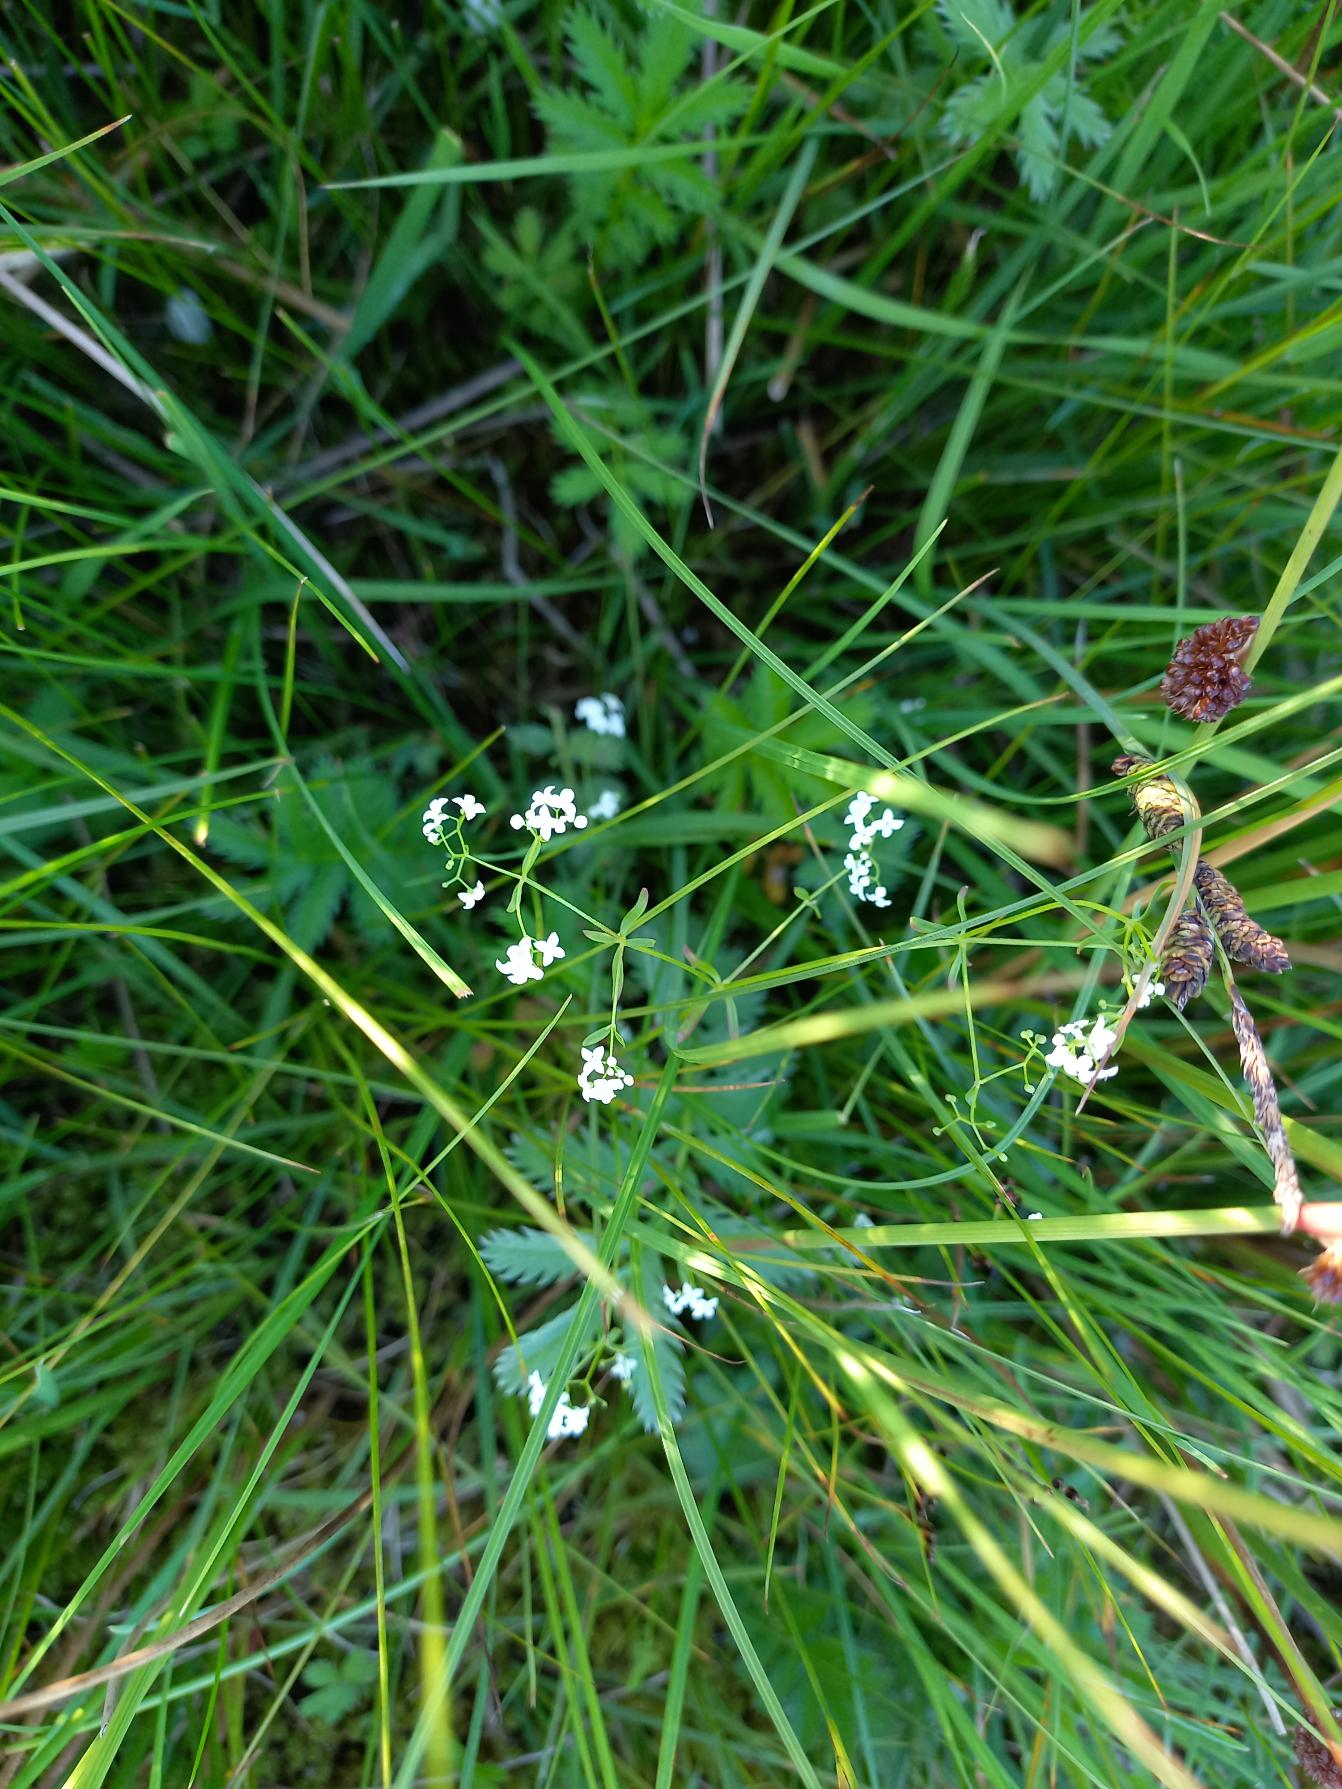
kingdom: Plantae
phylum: Tracheophyta
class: Magnoliopsida
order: Gentianales
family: Rubiaceae
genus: Galium
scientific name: Galium palustre
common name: Kær-snerre
